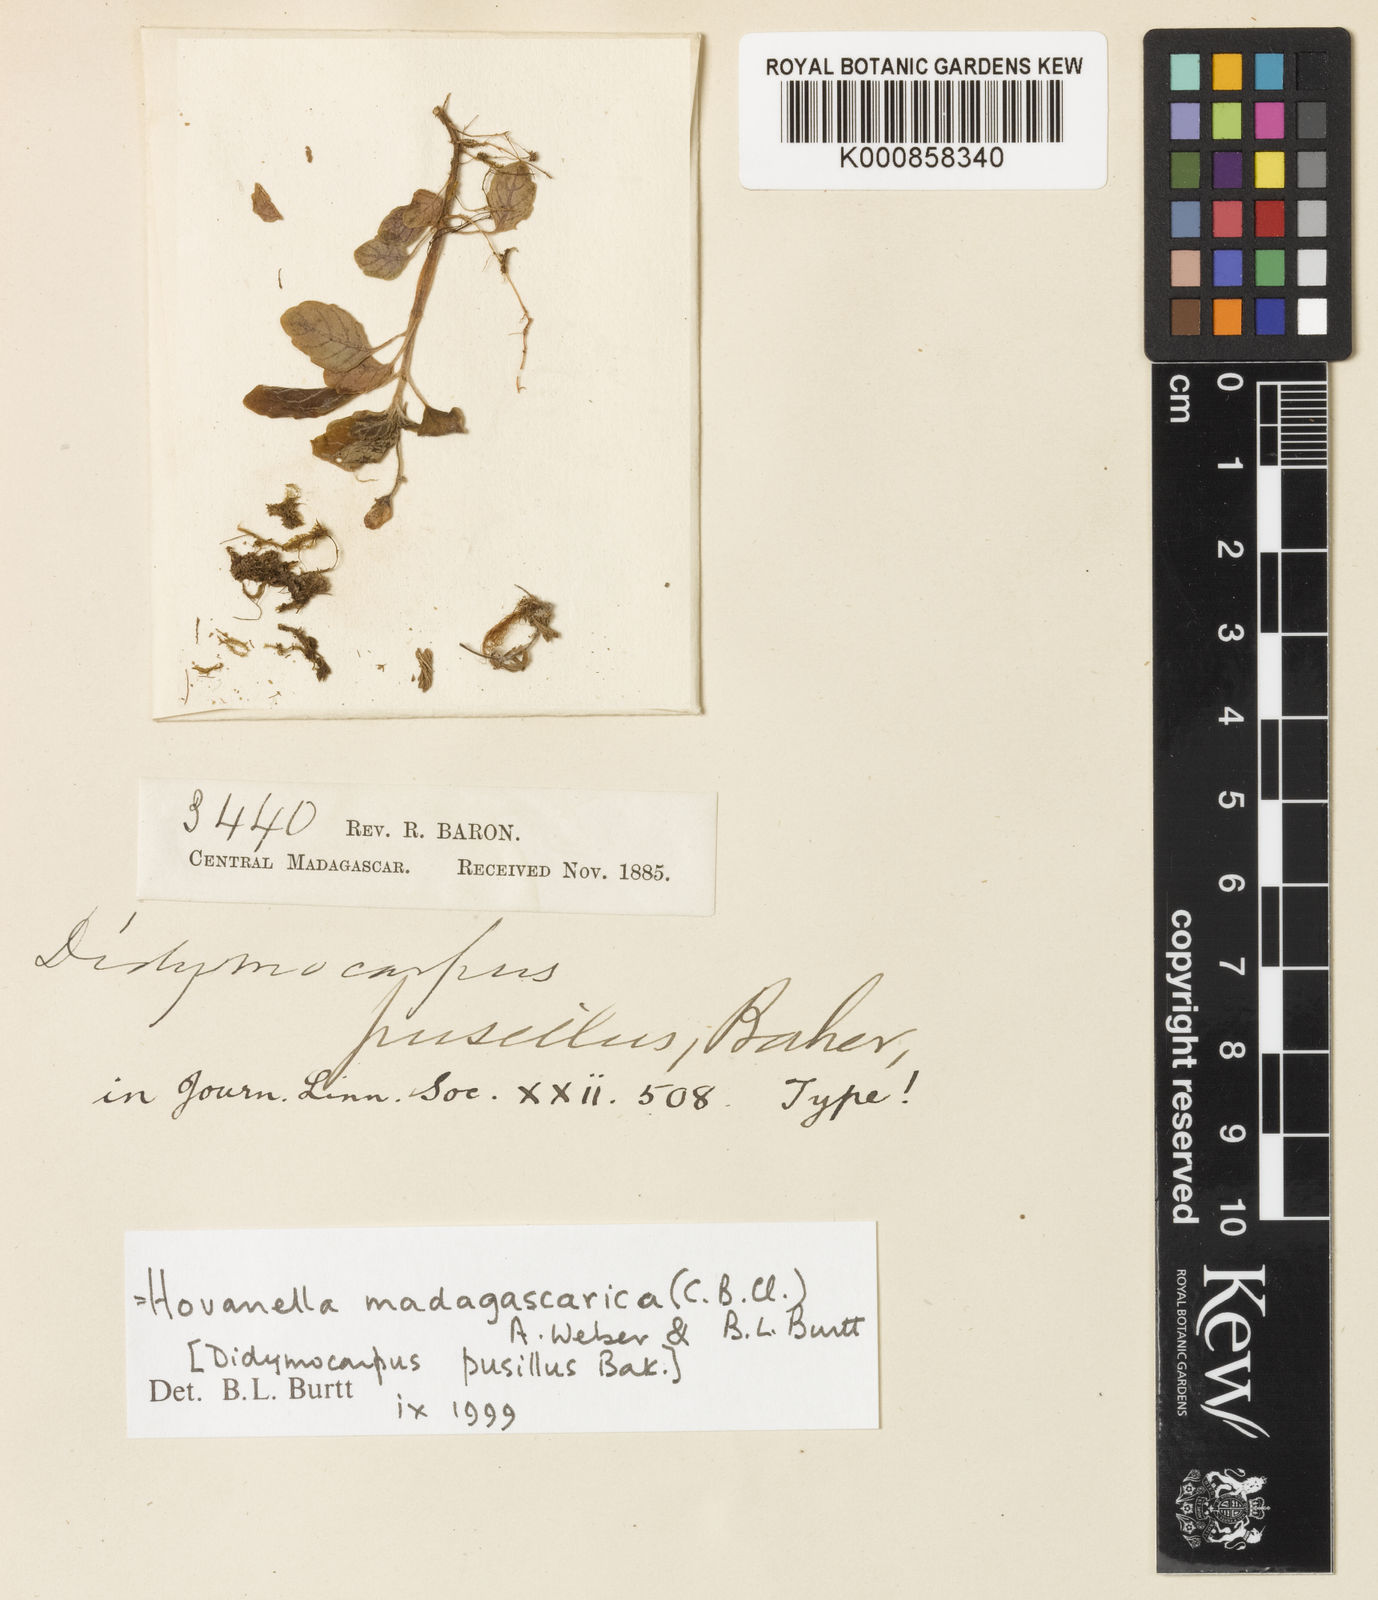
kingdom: Plantae
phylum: Tracheophyta
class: Magnoliopsida
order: Lamiales
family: Gesneriaceae
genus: Streptocarpus
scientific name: Streptocarpus madagascaricus
